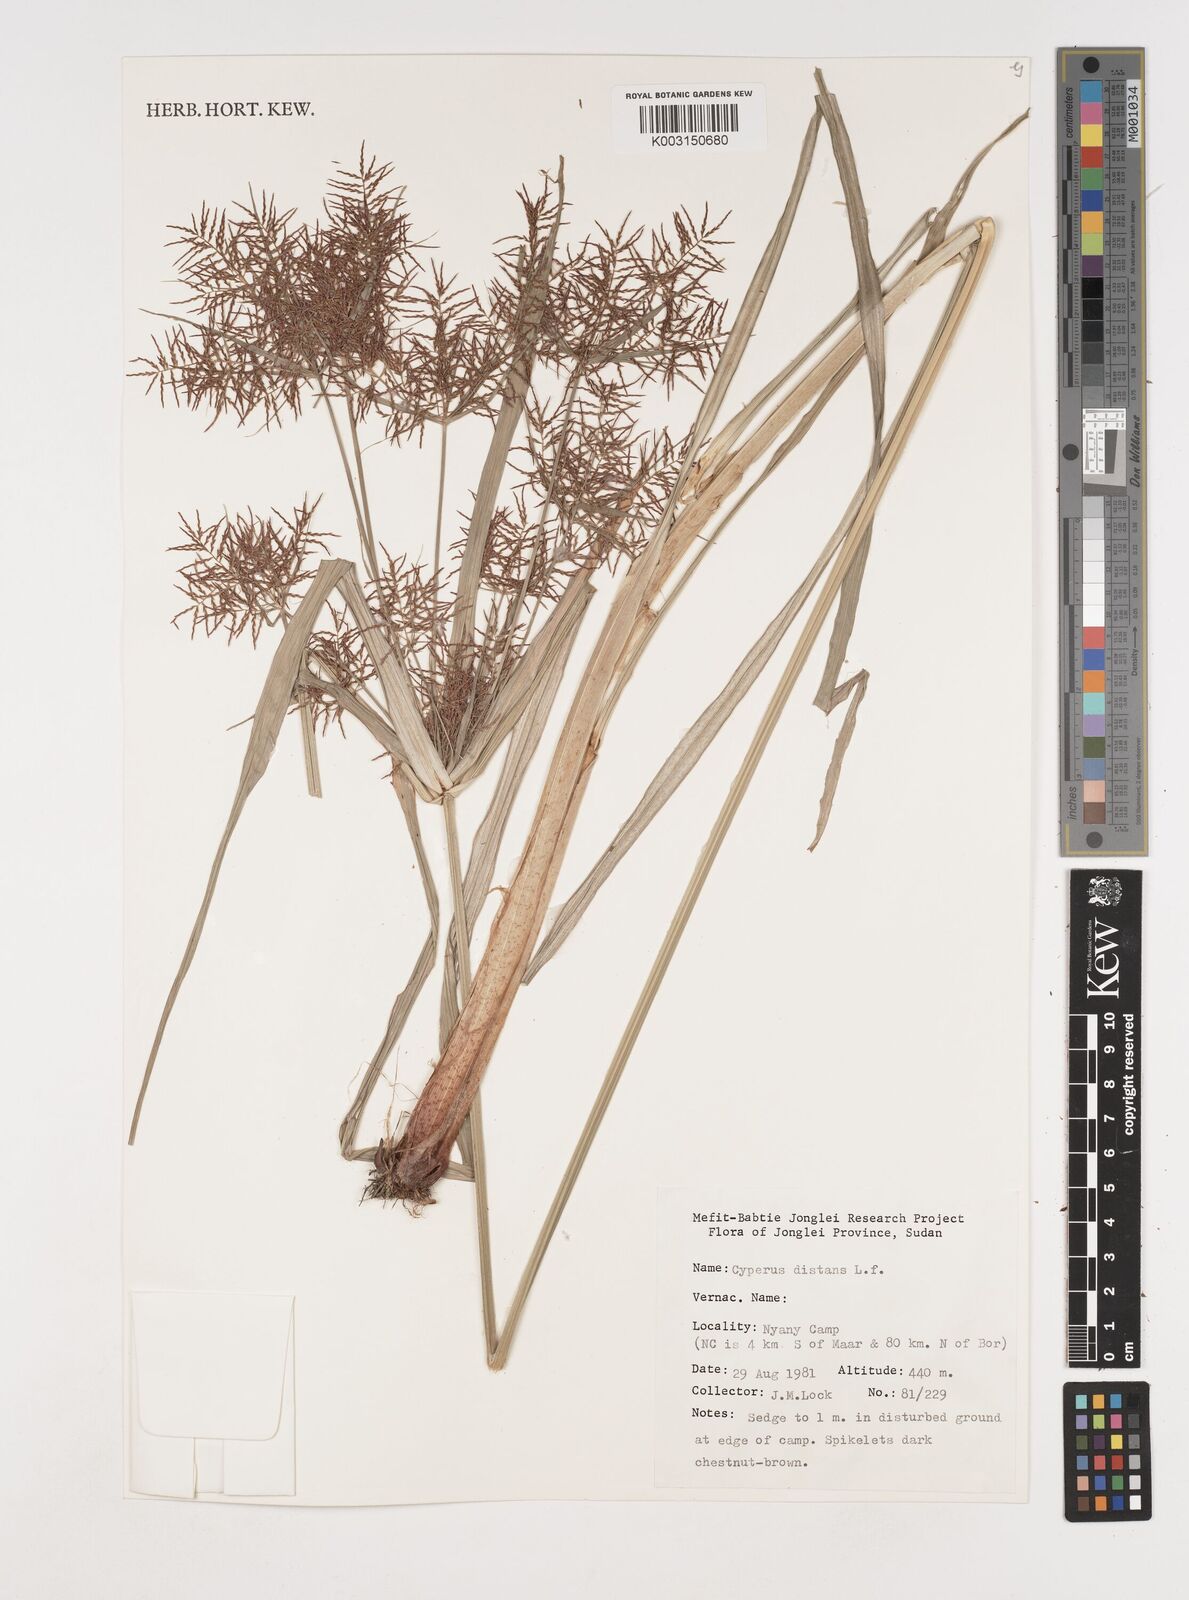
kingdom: Plantae
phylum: Tracheophyta
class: Liliopsida
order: Poales
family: Cyperaceae
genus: Cyperus
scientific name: Cyperus distans
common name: Slender cyperus
